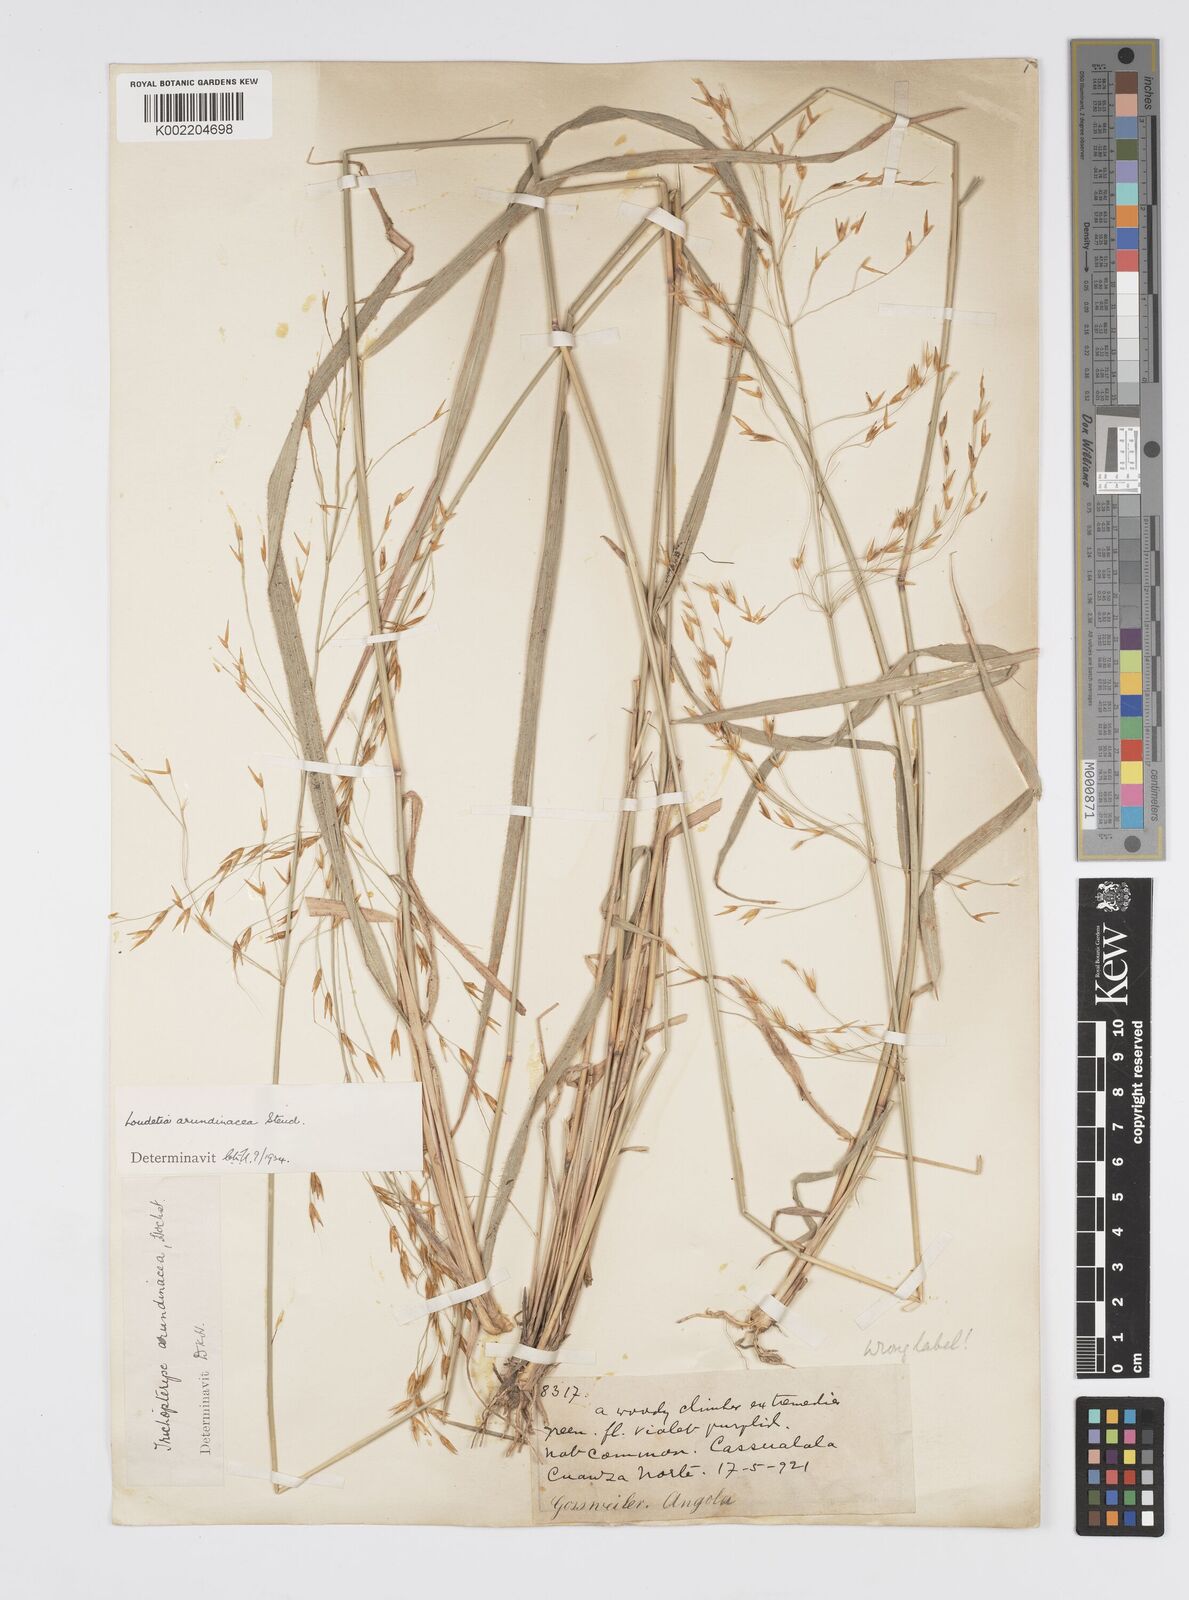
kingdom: Plantae
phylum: Tracheophyta
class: Liliopsida
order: Poales
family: Poaceae
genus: Loudetia
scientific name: Loudetia arundinacea
